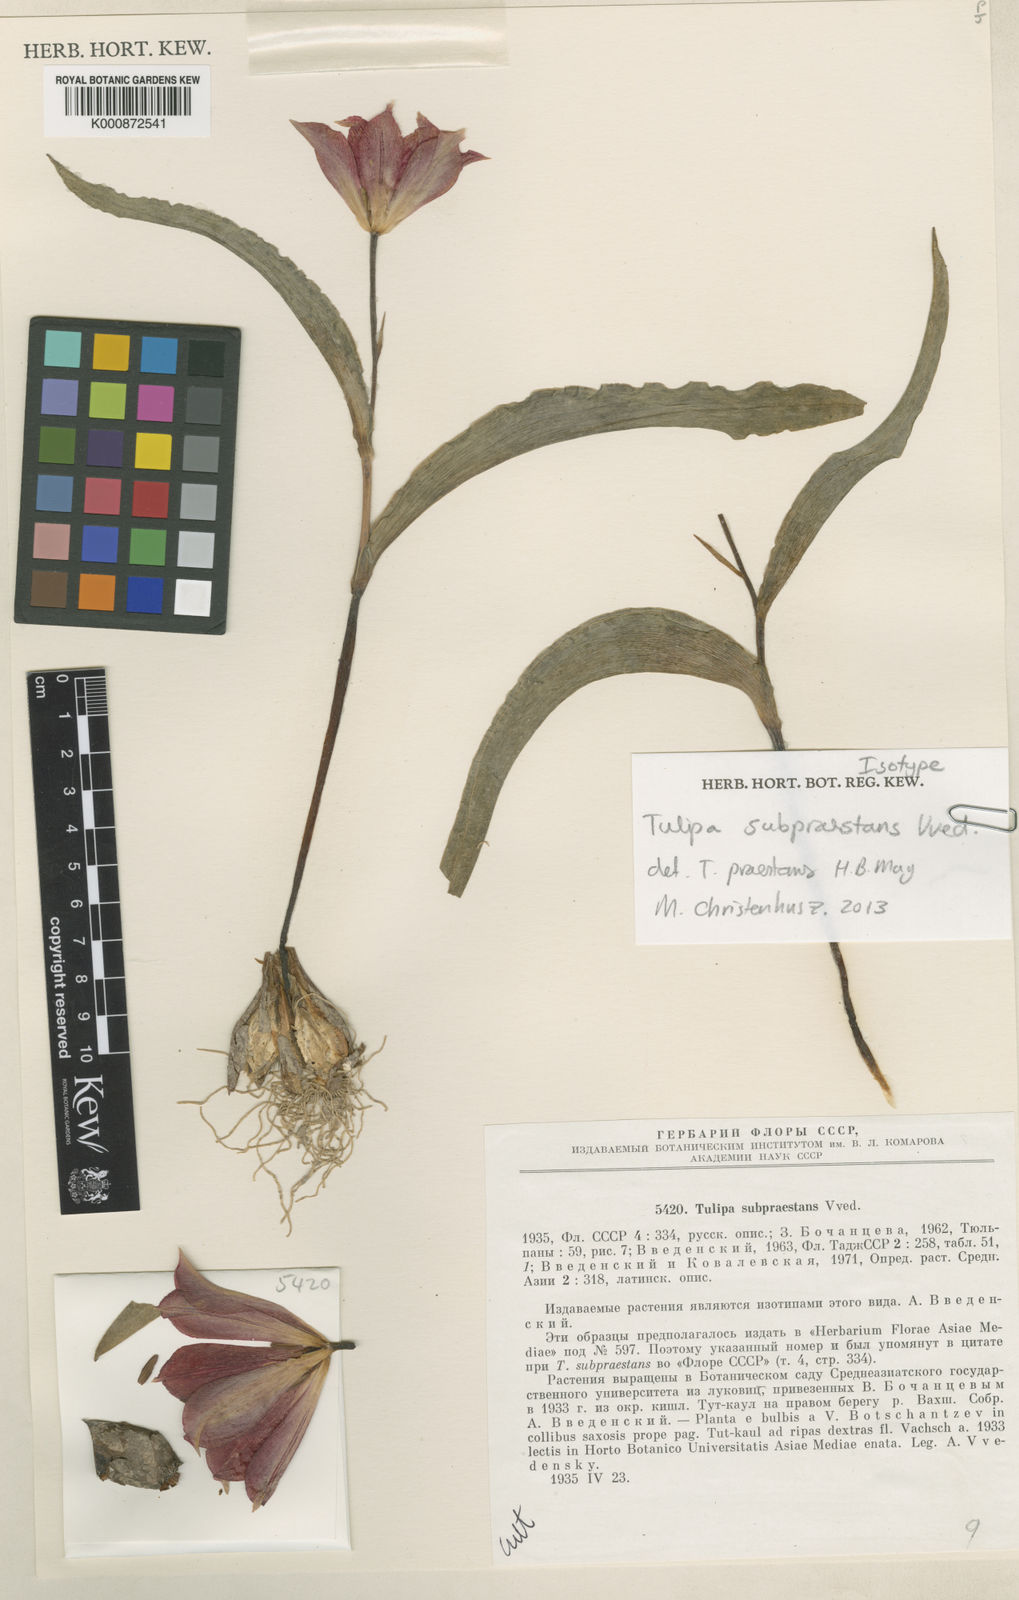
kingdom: Plantae
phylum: Tracheophyta
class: Liliopsida
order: Liliales
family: Liliaceae
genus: Tulipa
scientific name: Tulipa praestans
